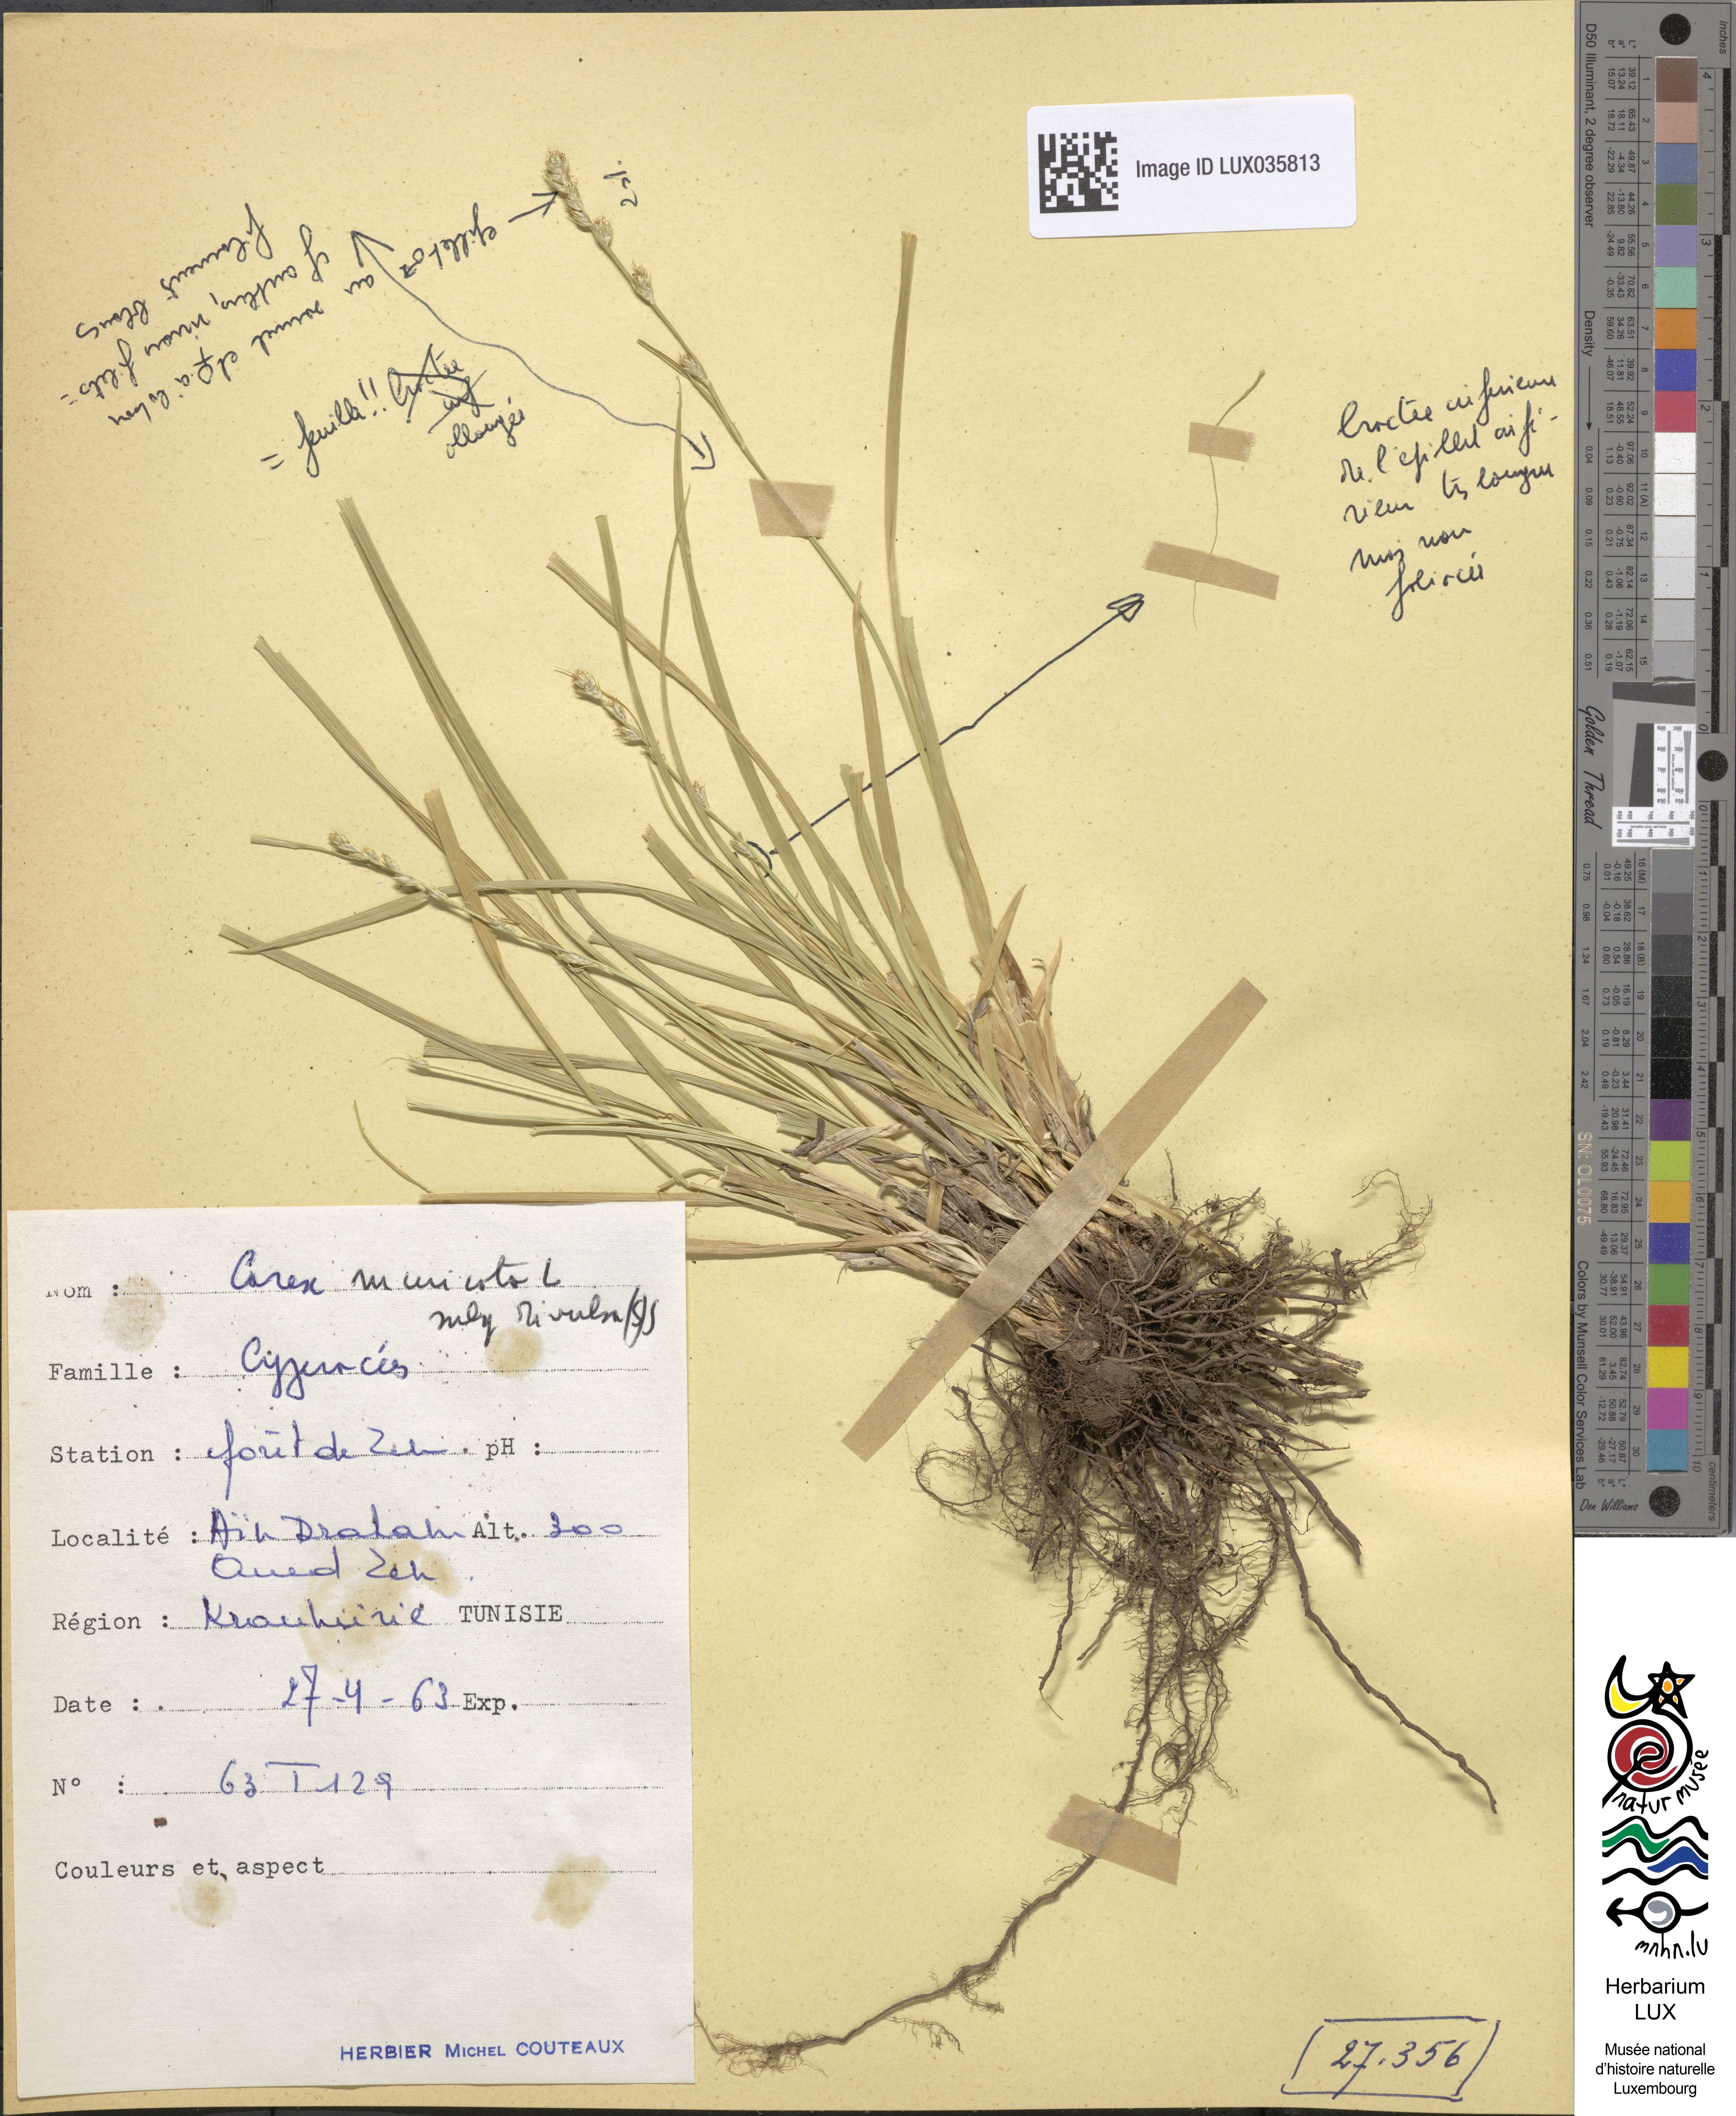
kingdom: Plantae
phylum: Tracheophyta
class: Liliopsida
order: Poales
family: Cyperaceae
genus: Carex
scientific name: Carex divulsa
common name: Grassland sedge
